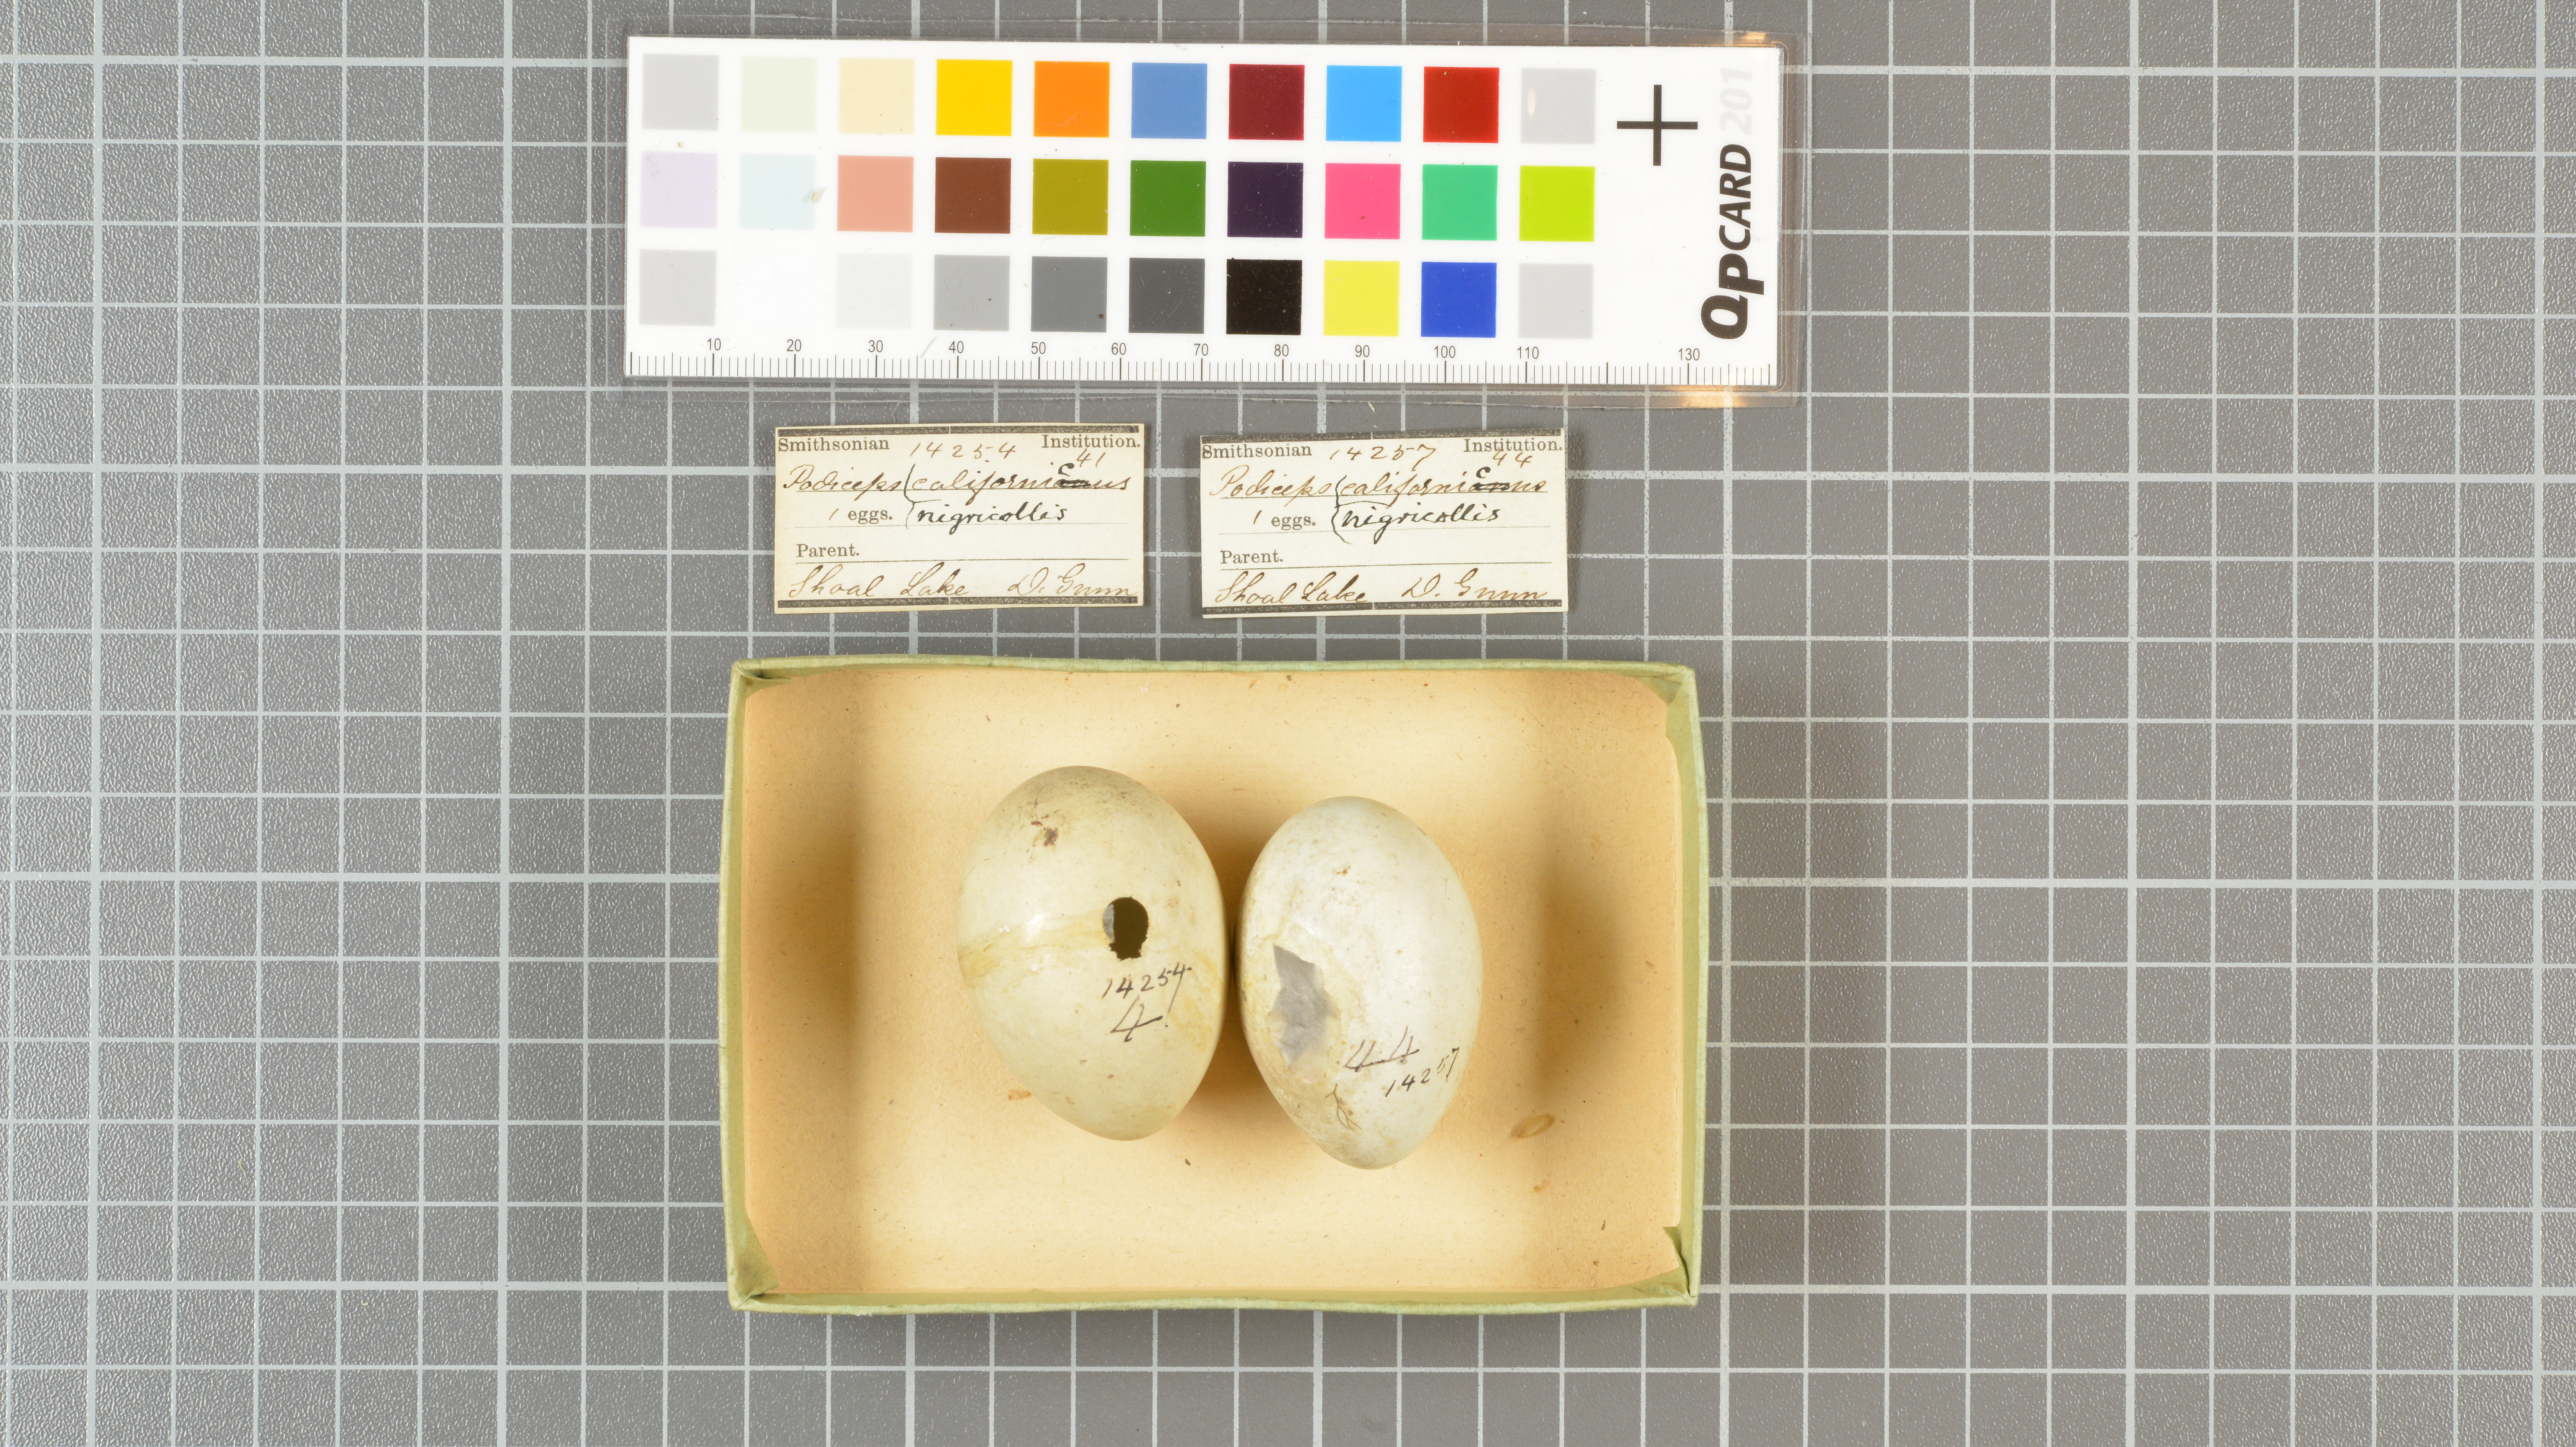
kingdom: Animalia
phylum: Chordata
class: Aves
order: Podicipediformes
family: Podicipedidae
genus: Podiceps
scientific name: Podiceps nigricollis
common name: Black-necked grebe
